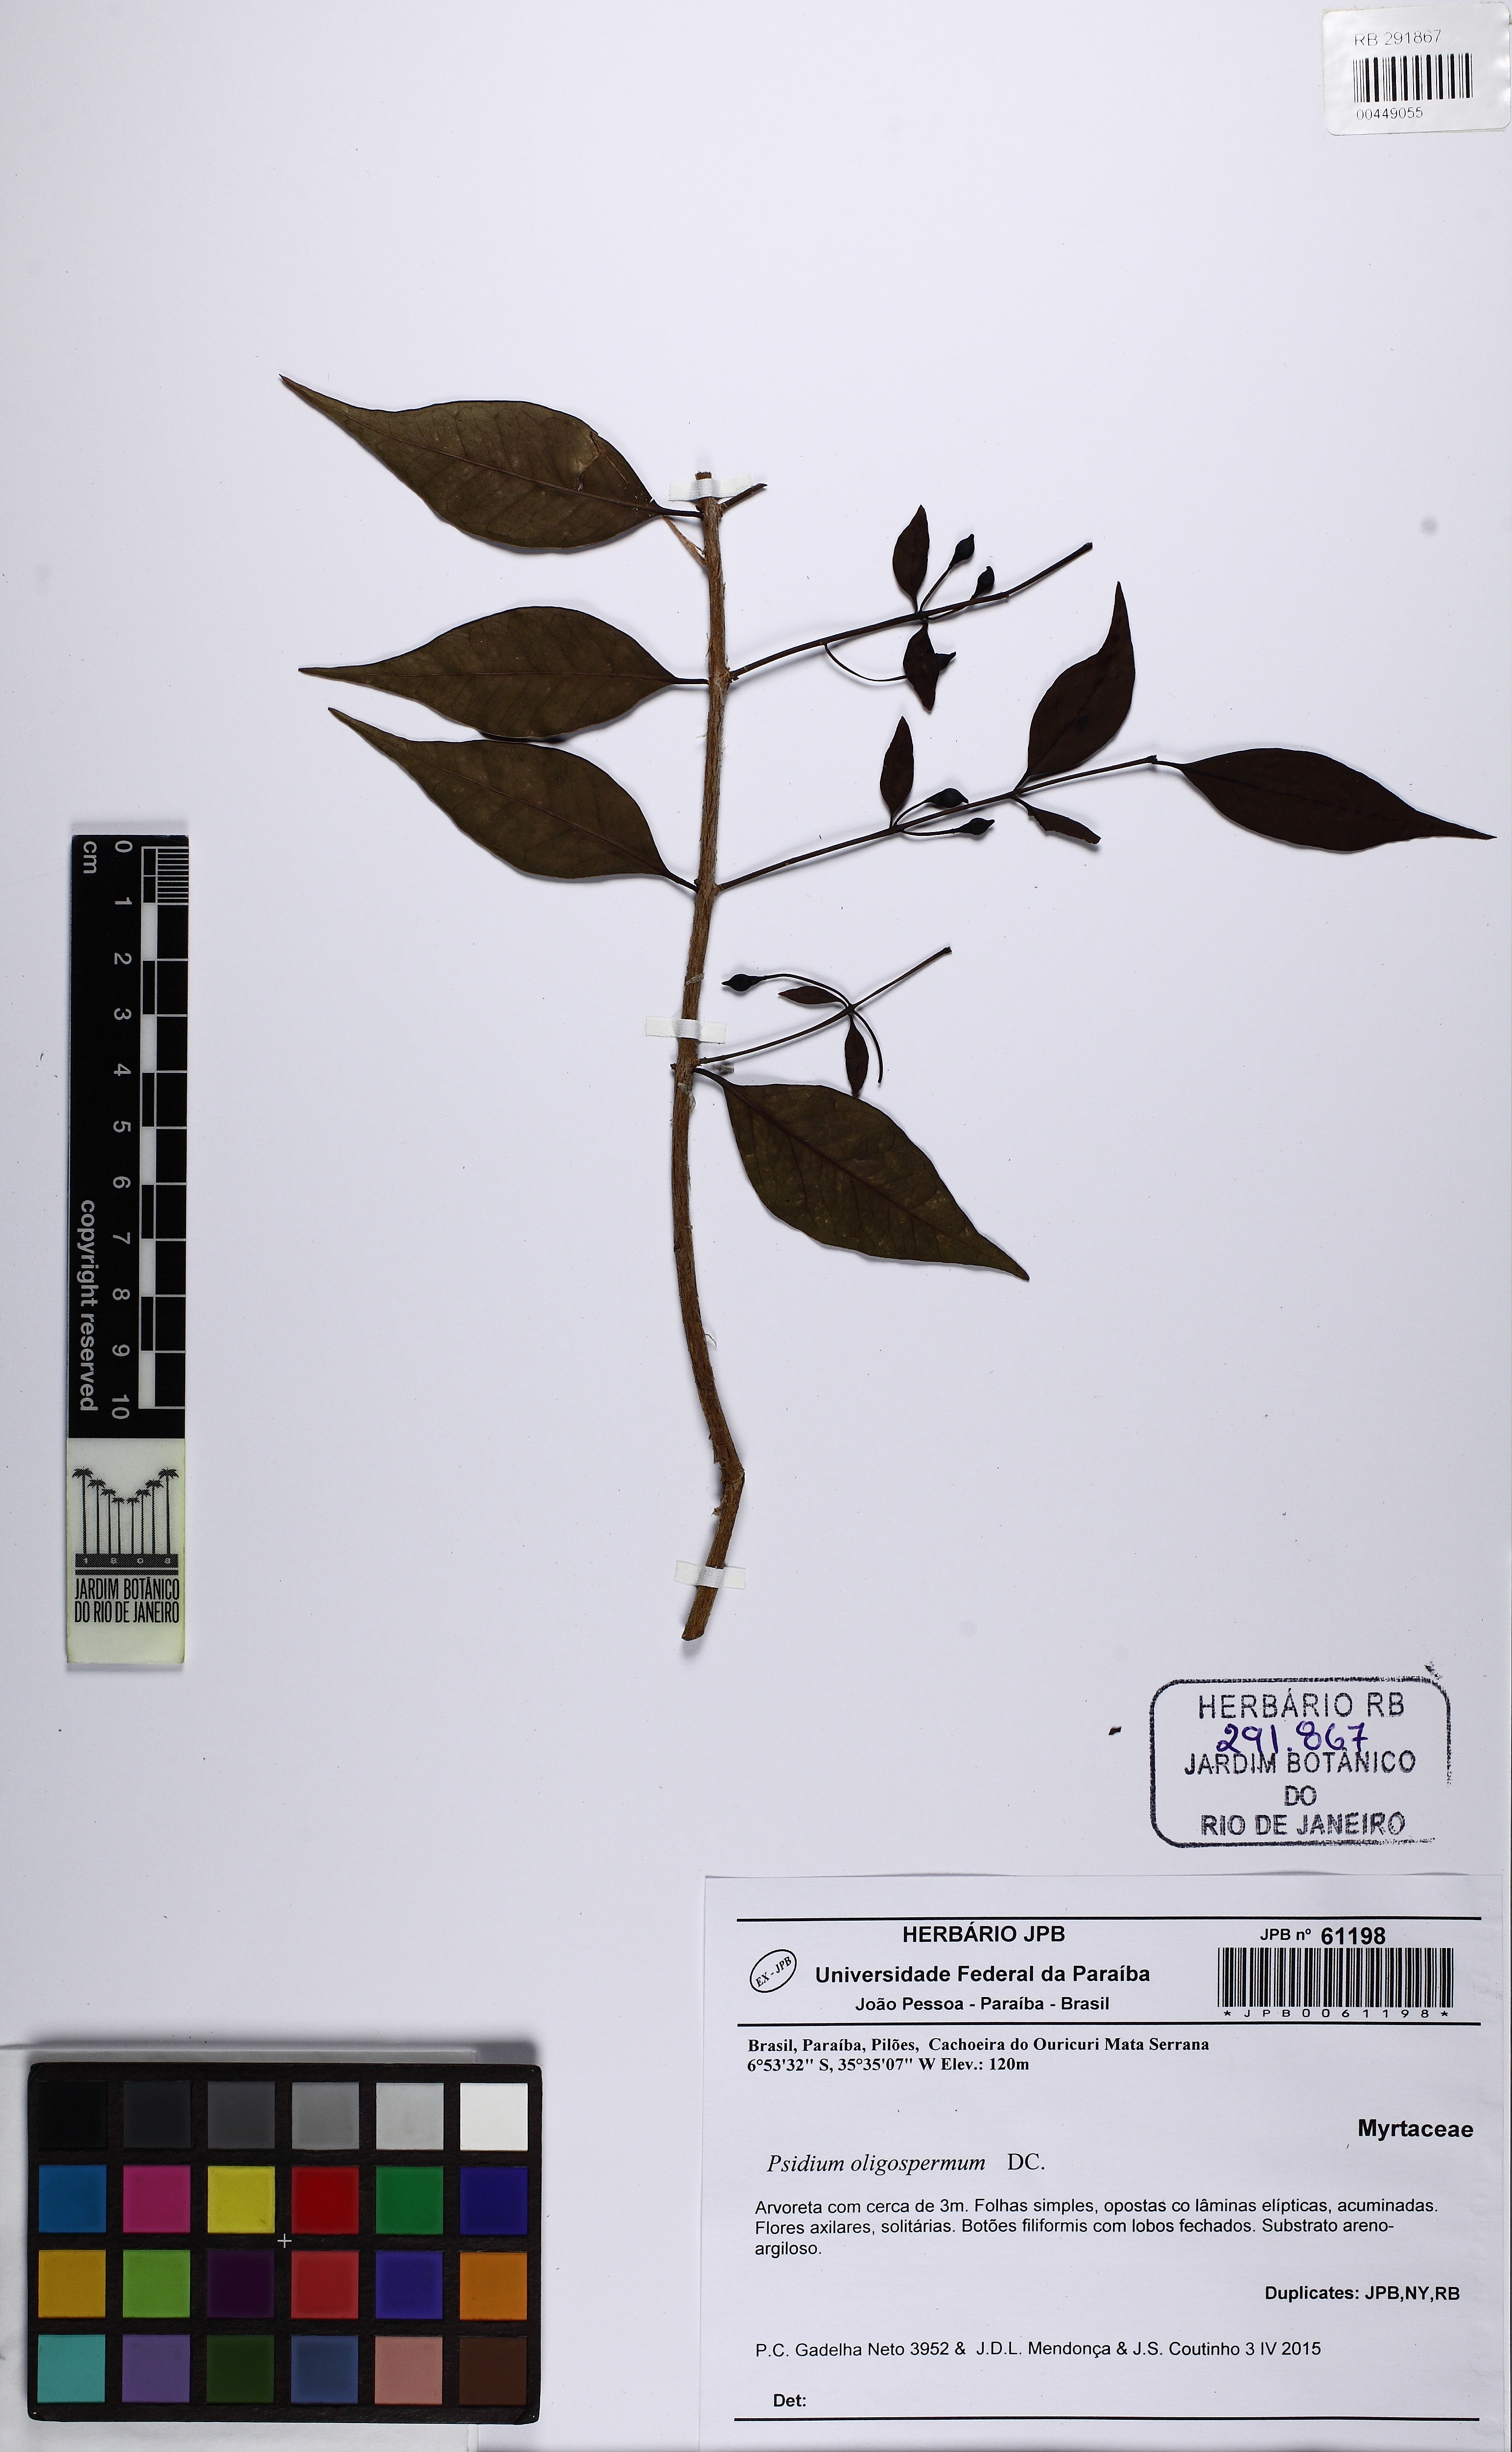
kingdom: Plantae
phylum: Tracheophyta
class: Magnoliopsida
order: Myrtales
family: Myrtaceae
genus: Psidium
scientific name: Psidium oligospermum
